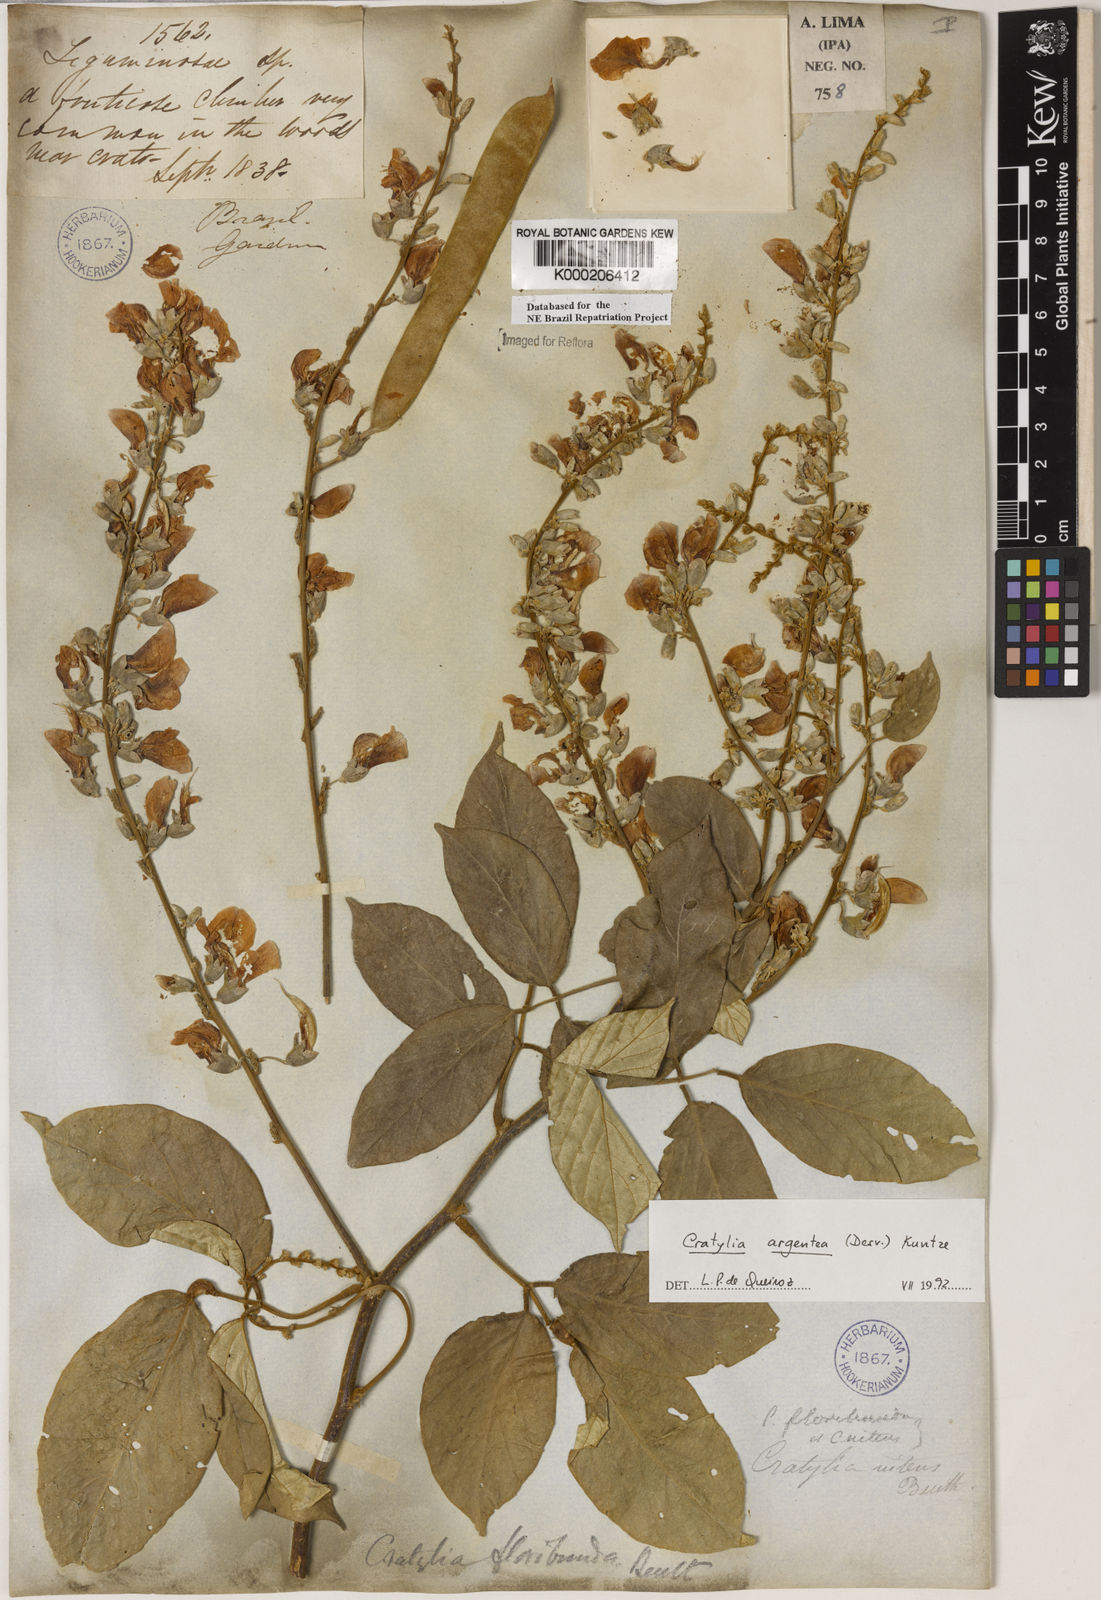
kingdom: Plantae
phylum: Tracheophyta
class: Magnoliopsida
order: Fabales
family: Fabaceae
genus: Cratylia
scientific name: Cratylia argentea
